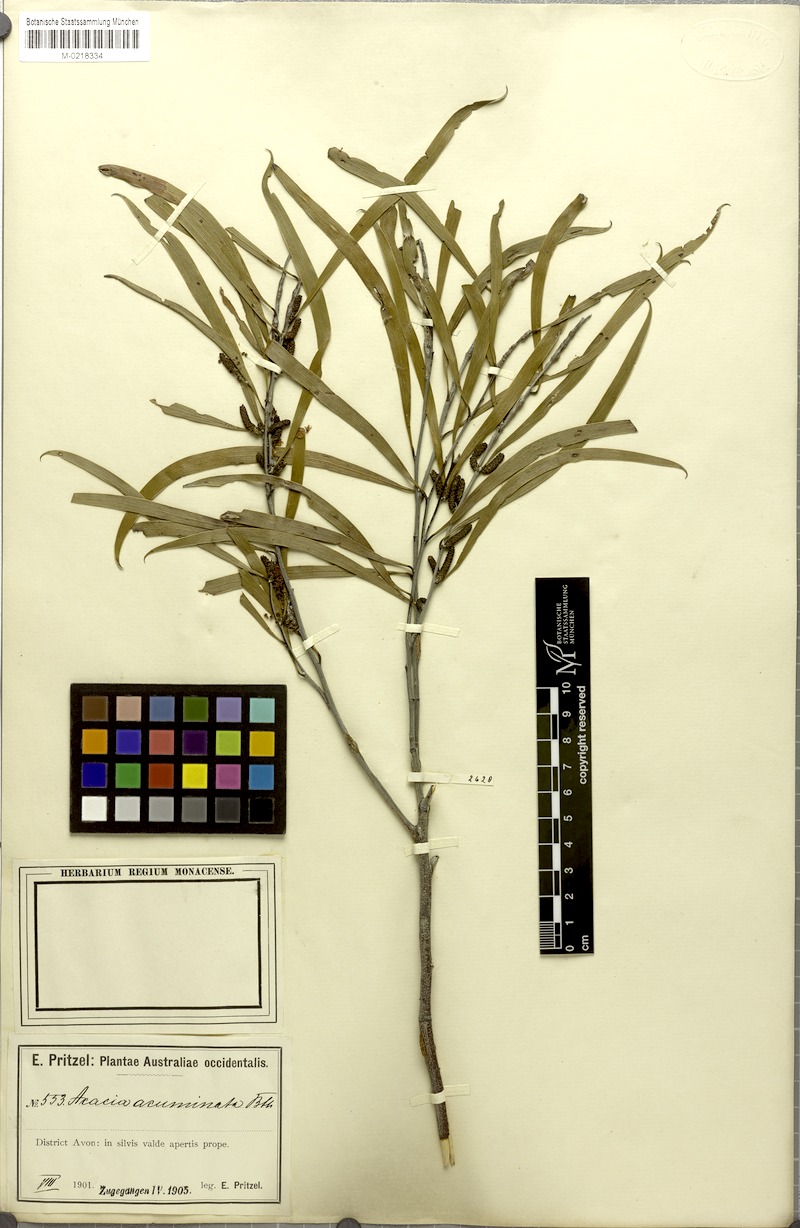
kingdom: Plantae
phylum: Tracheophyta
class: Magnoliopsida
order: Fabales
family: Fabaceae
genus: Acacia
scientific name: Acacia acuminata
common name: Jam wattle
